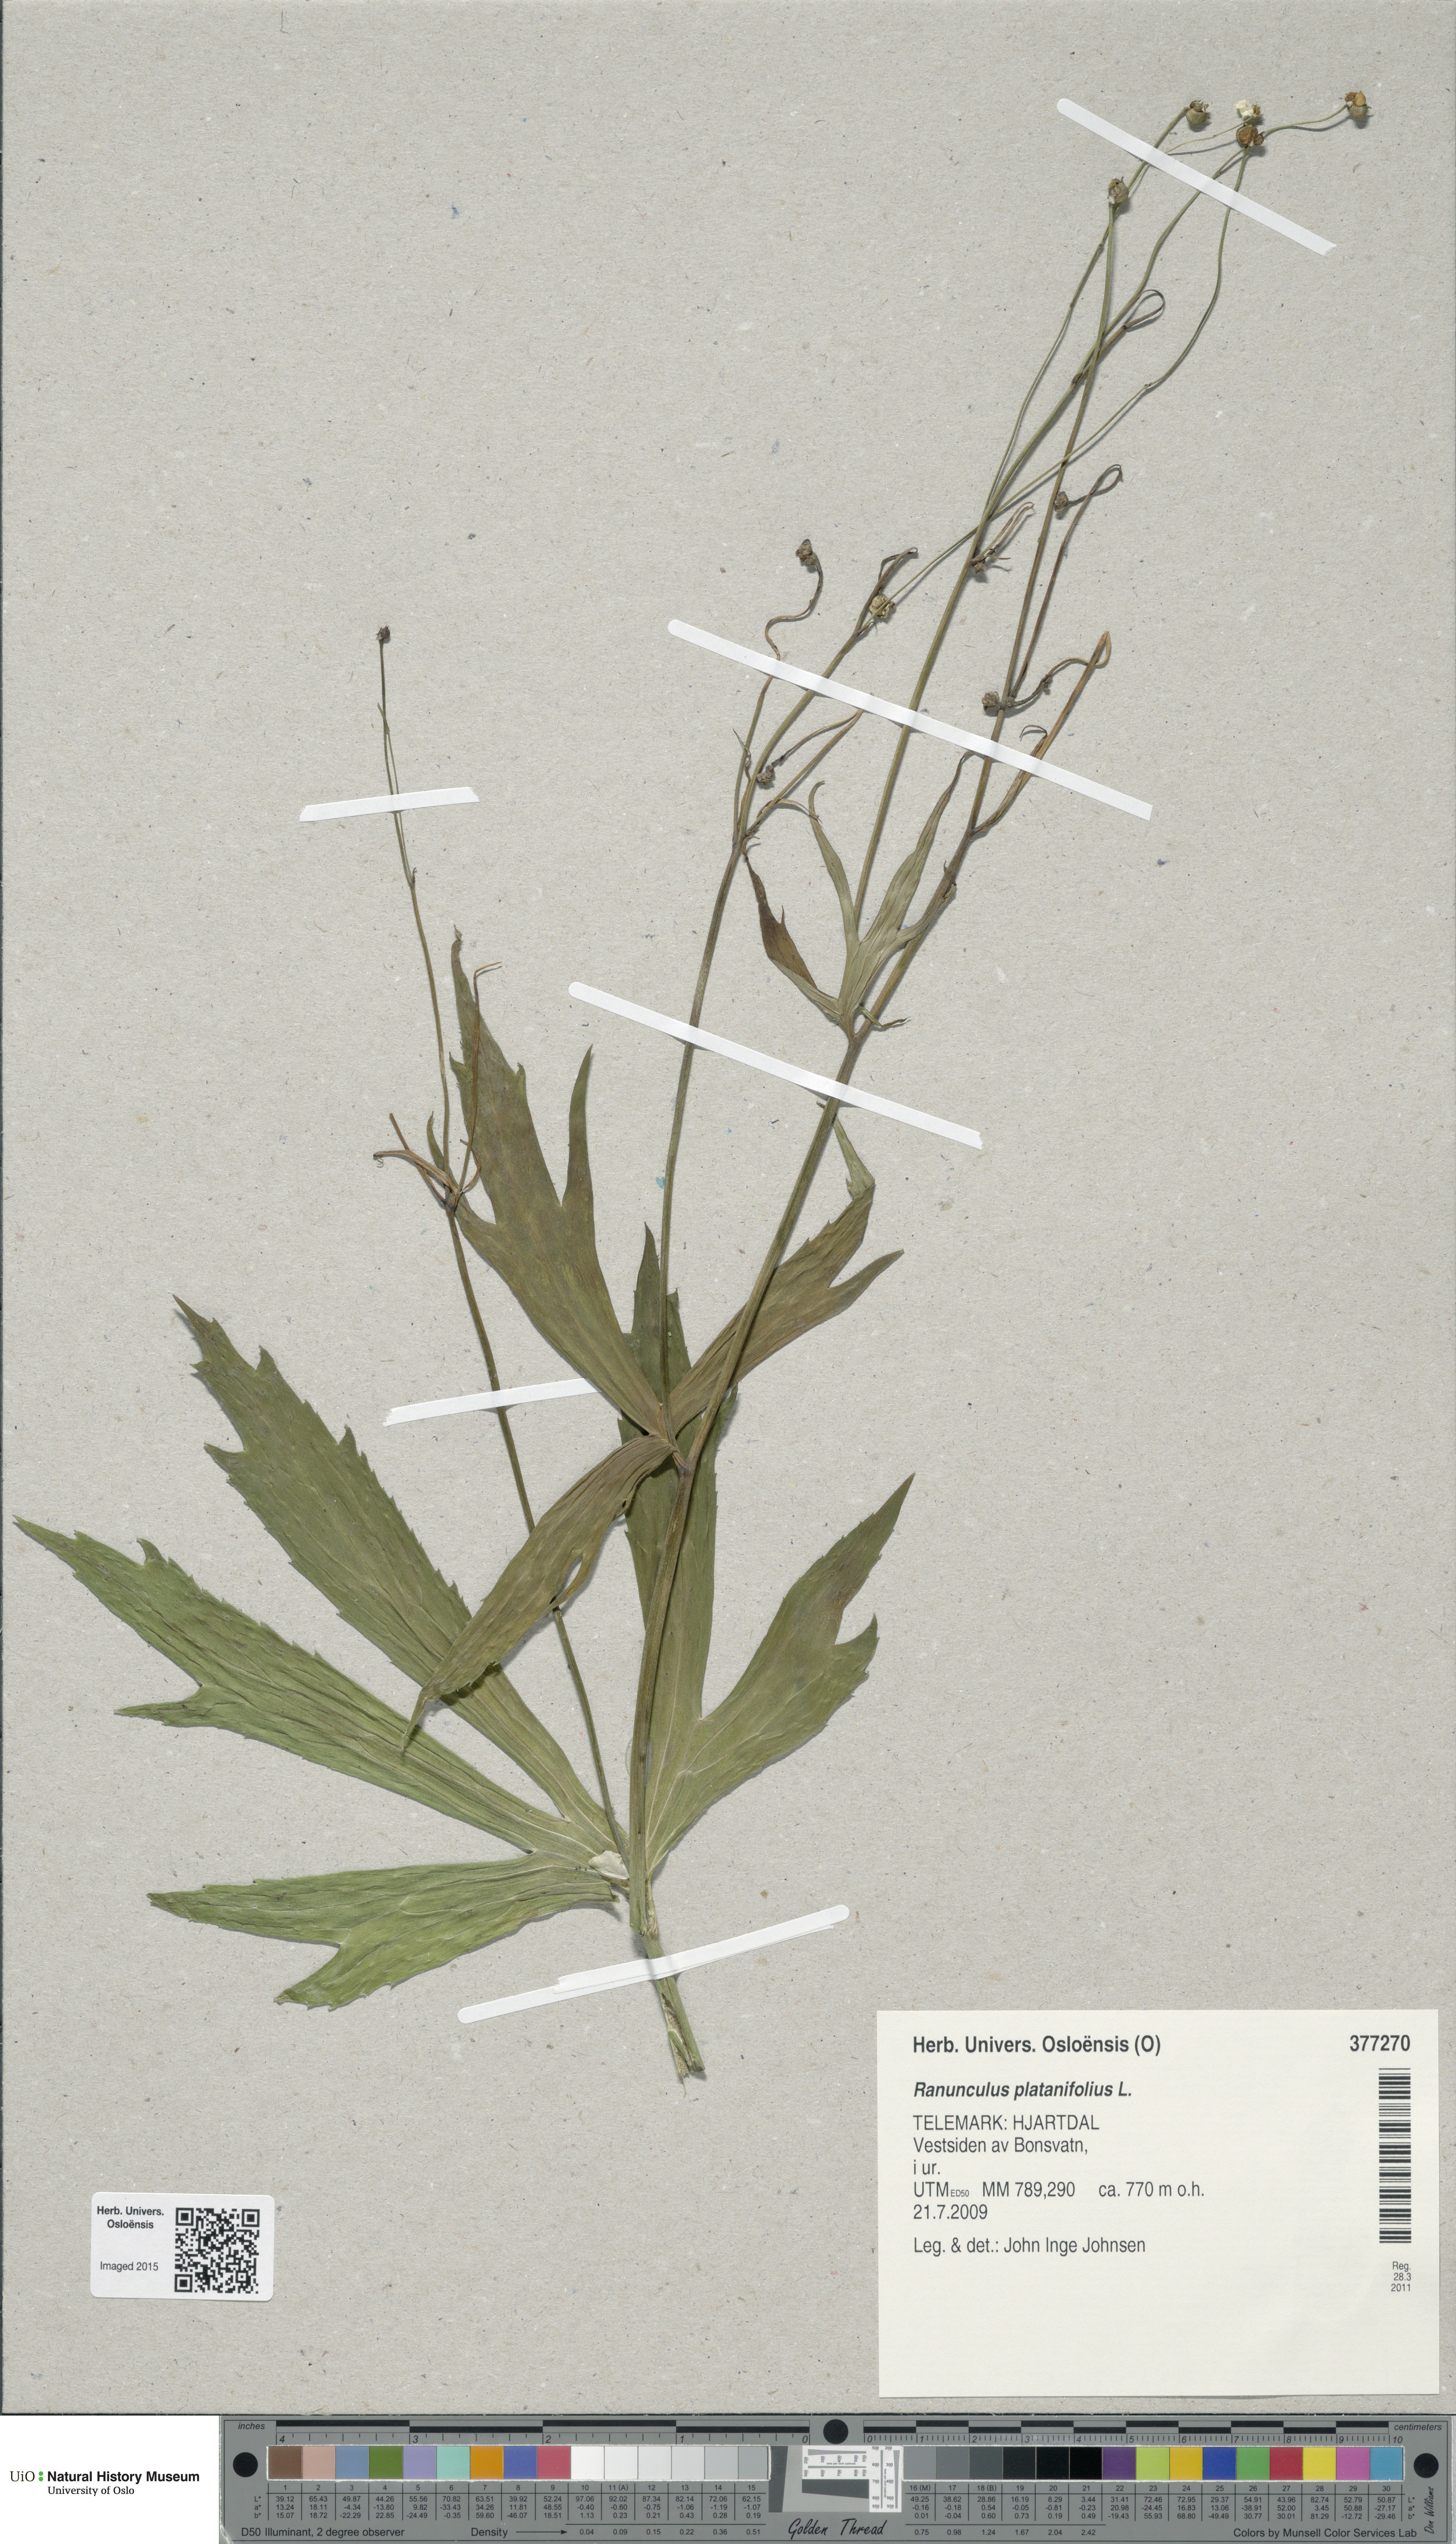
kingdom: Plantae
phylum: Tracheophyta
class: Magnoliopsida
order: Ranunculales
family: Ranunculaceae
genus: Ranunculus
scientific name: Ranunculus platanifolius
